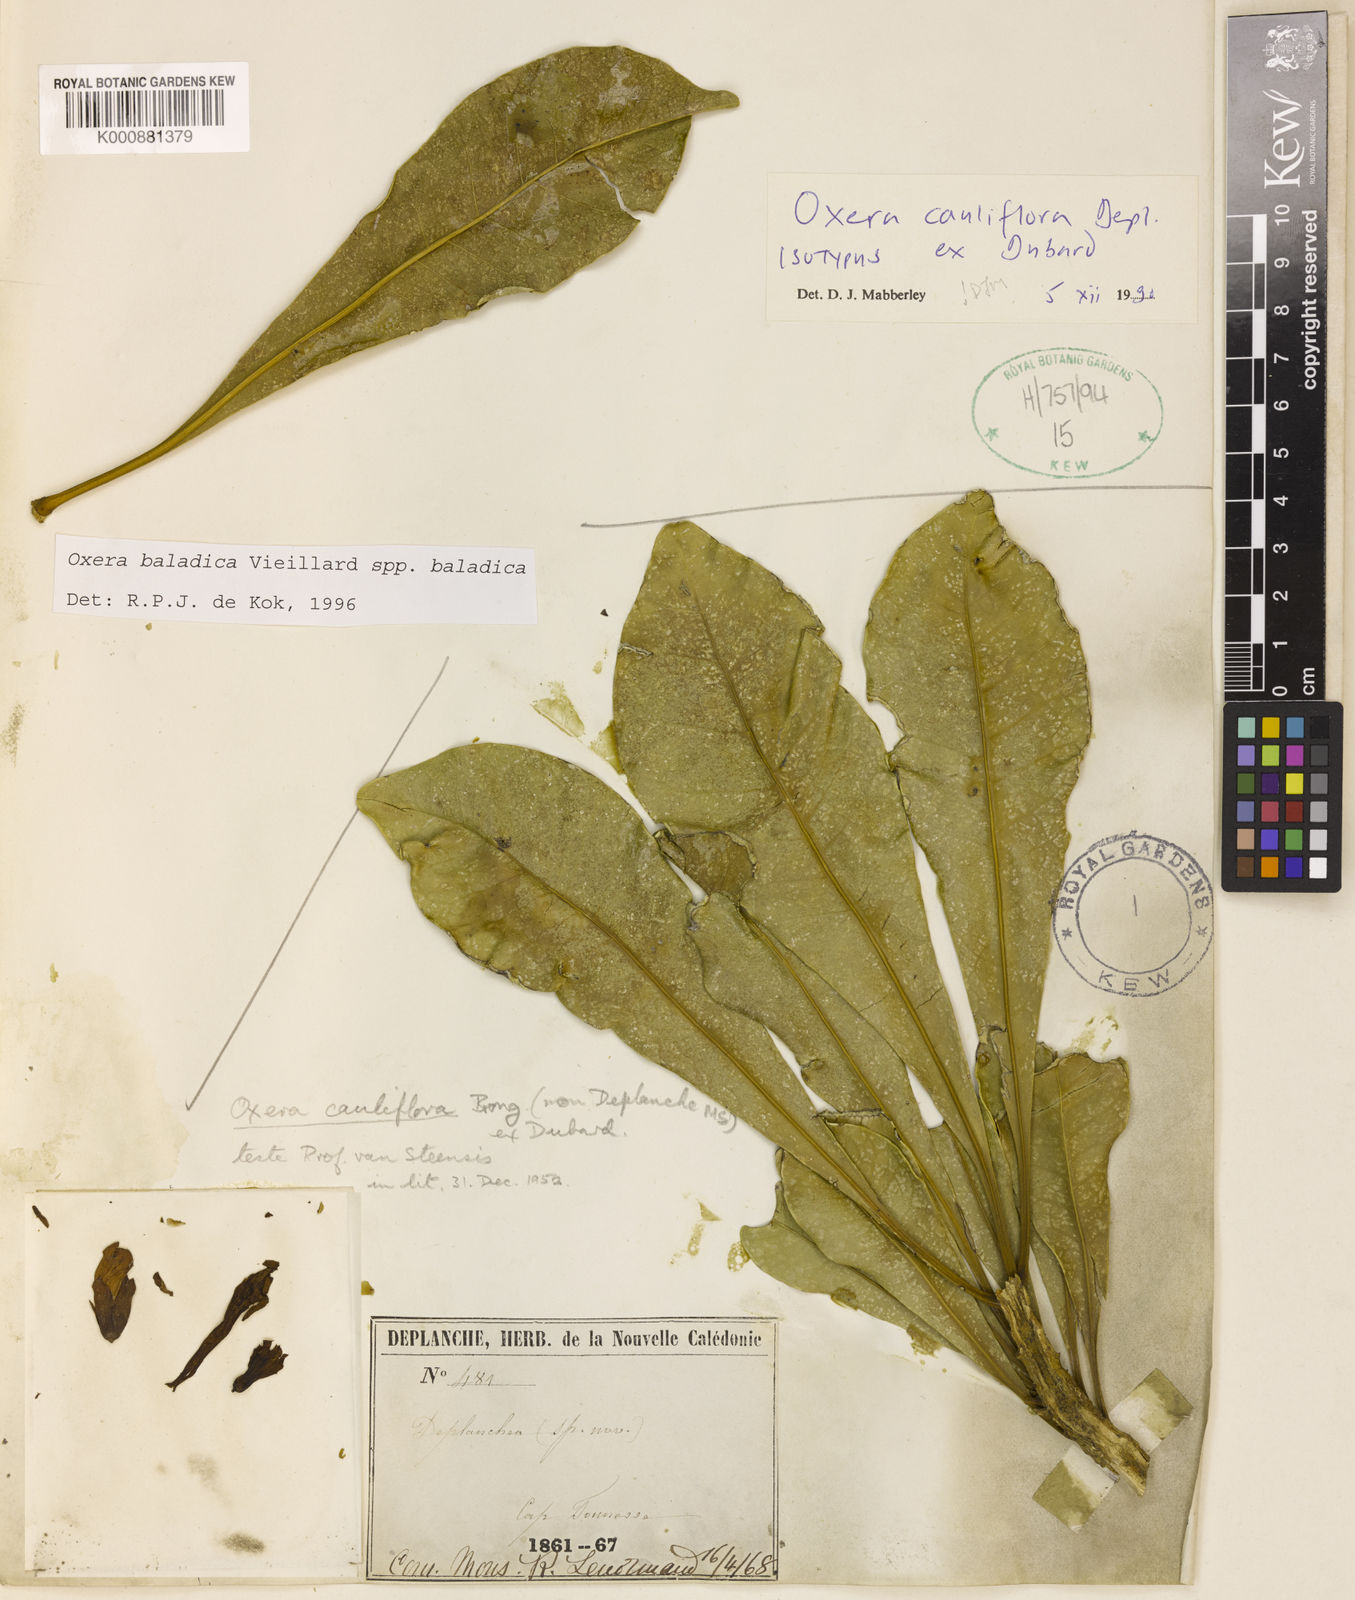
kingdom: Plantae
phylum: Tracheophyta
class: Magnoliopsida
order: Lamiales
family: Lamiaceae
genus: Oxera
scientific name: Oxera sessilifolia
